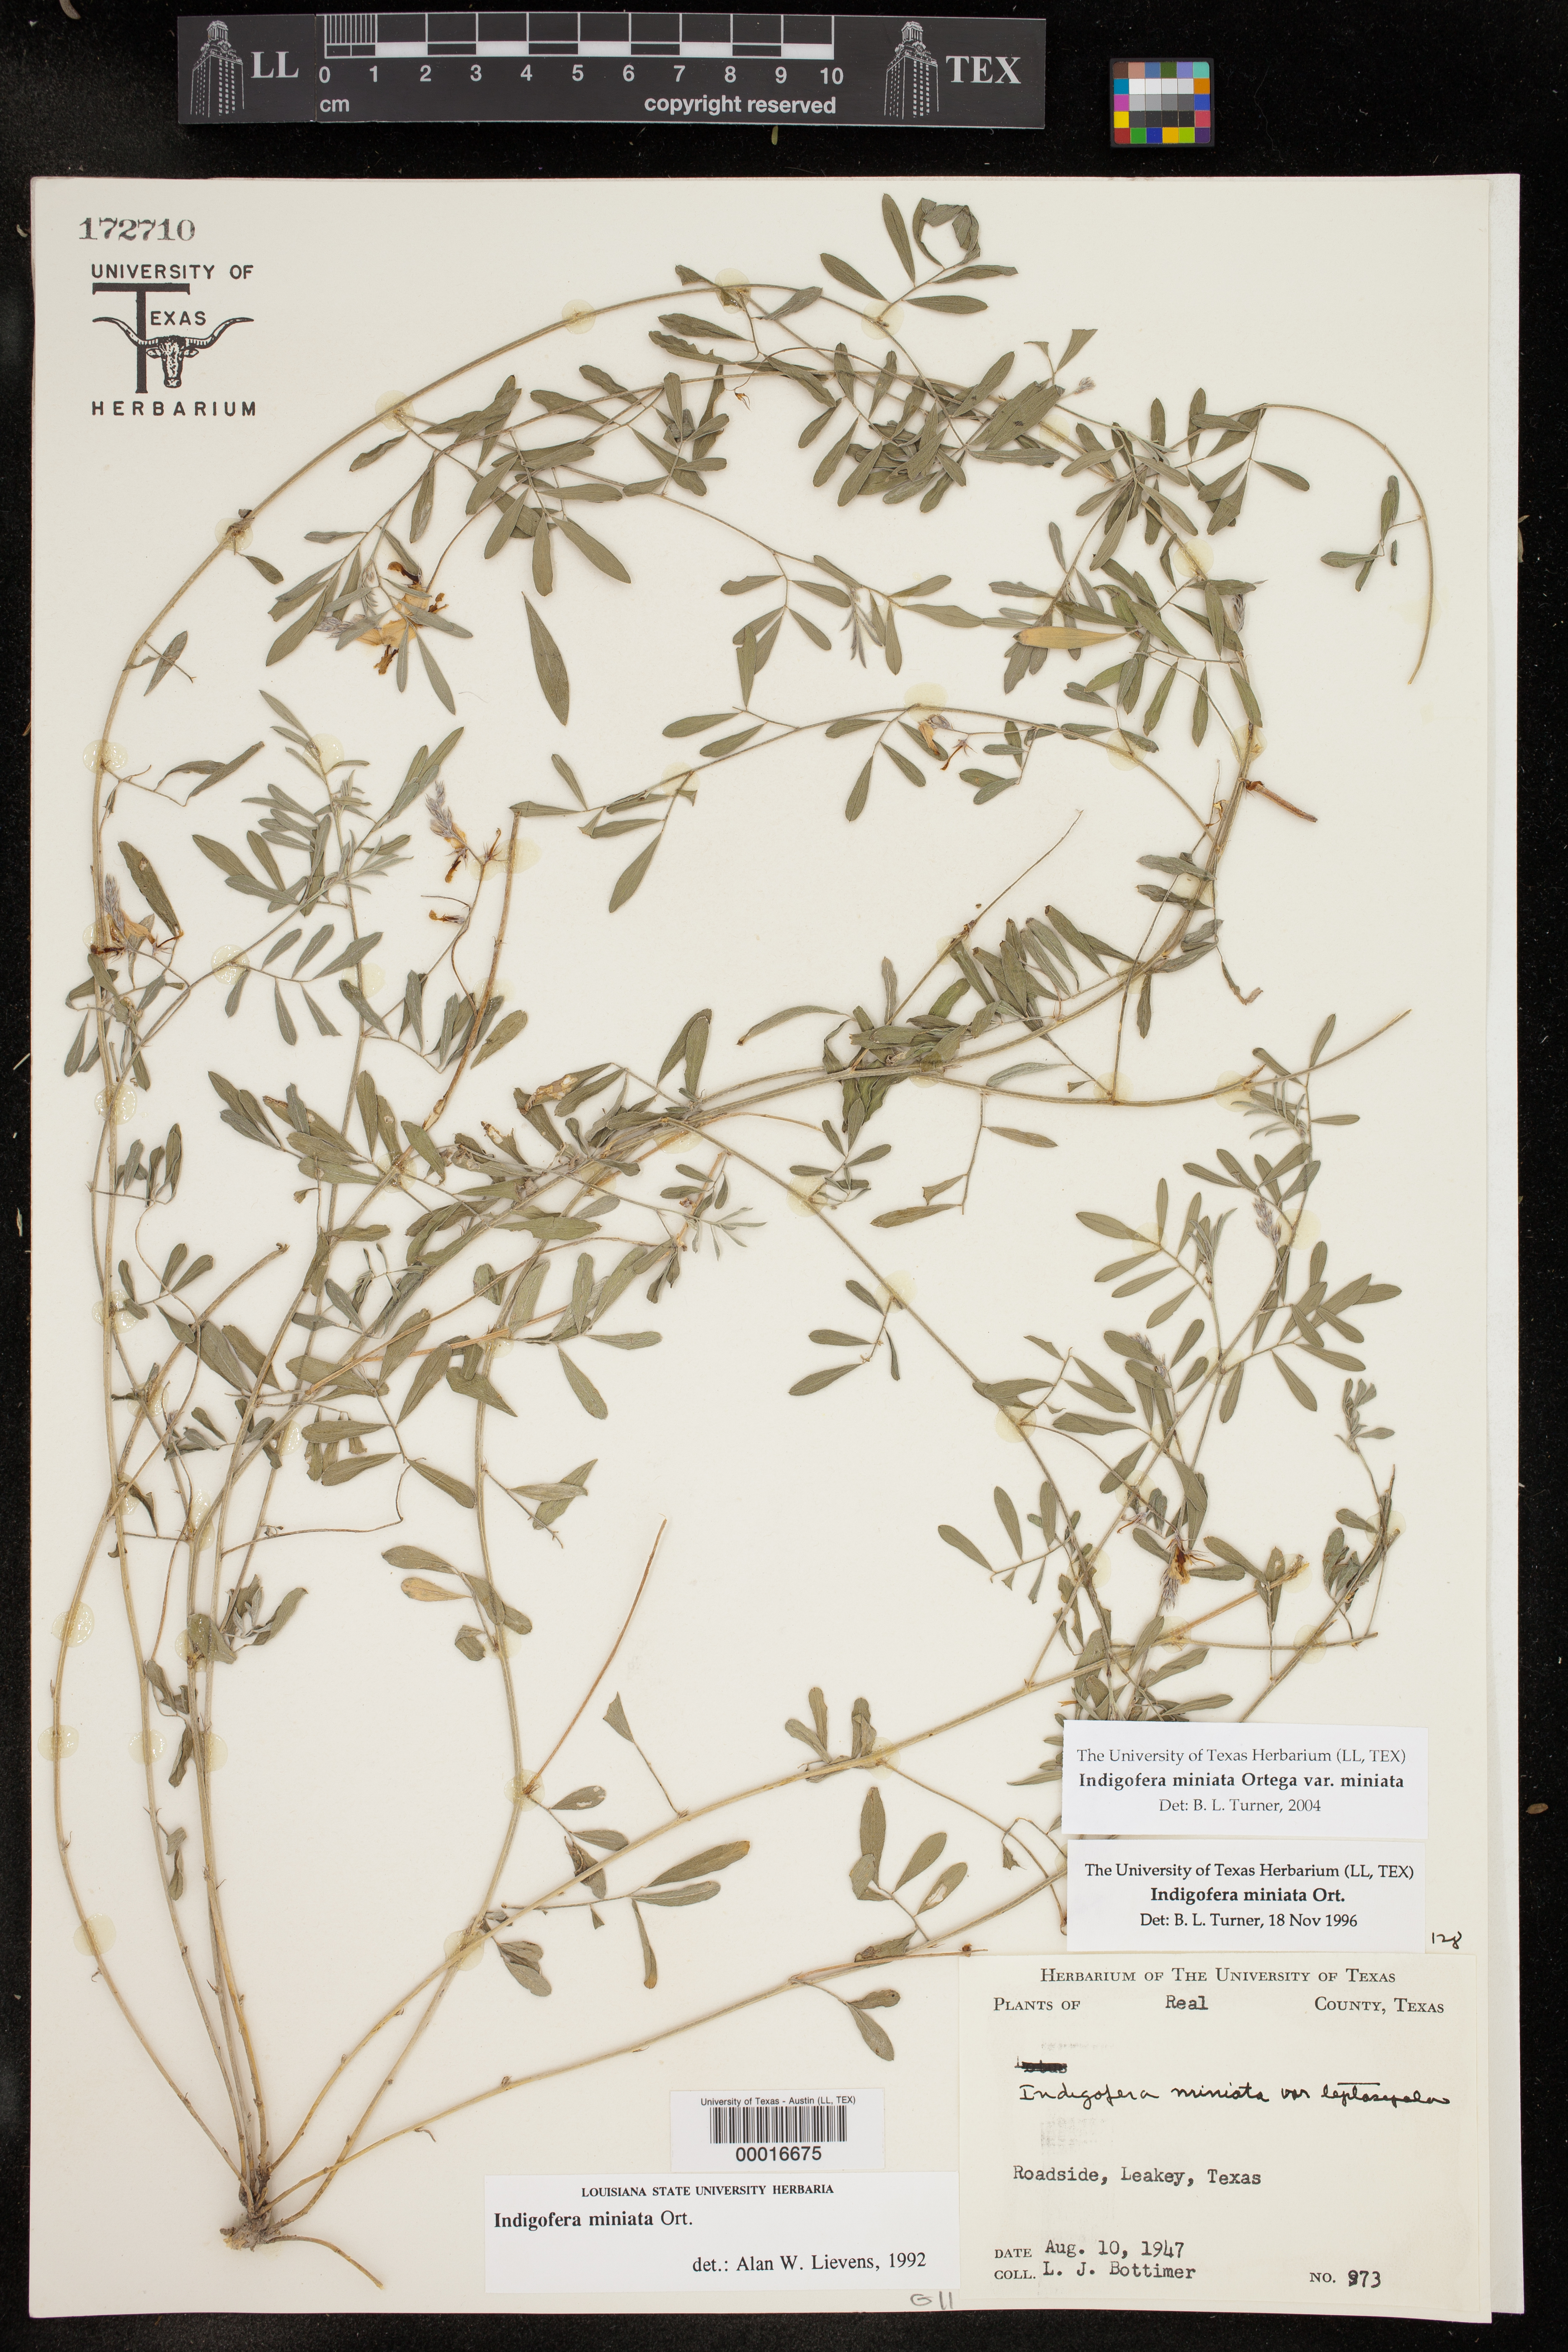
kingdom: Plantae
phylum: Tracheophyta
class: Magnoliopsida
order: Fabales
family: Fabaceae
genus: Indigofera
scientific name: Indigofera miniata
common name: Coast indigo
